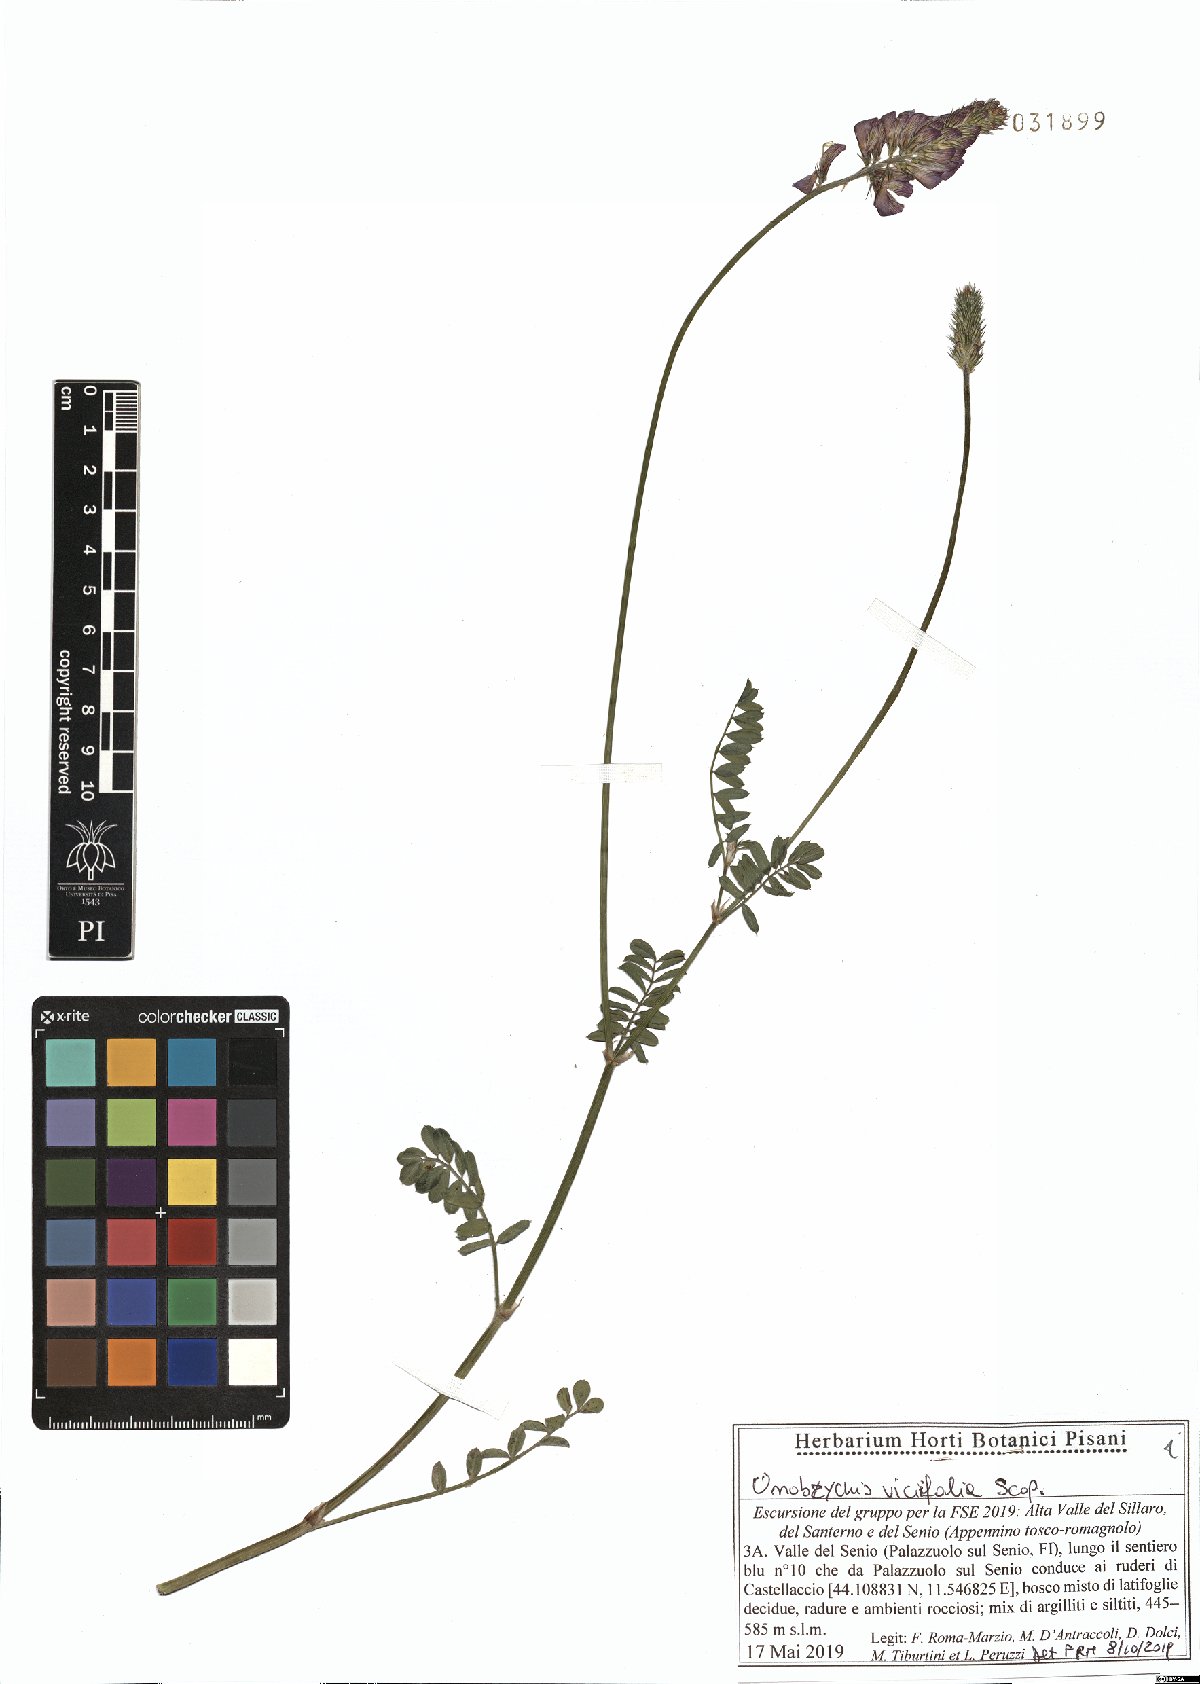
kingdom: Plantae
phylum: Tracheophyta
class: Magnoliopsida
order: Fabales
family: Fabaceae
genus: Onobrychis
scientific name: Onobrychis viciifolia
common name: Sainfoin
